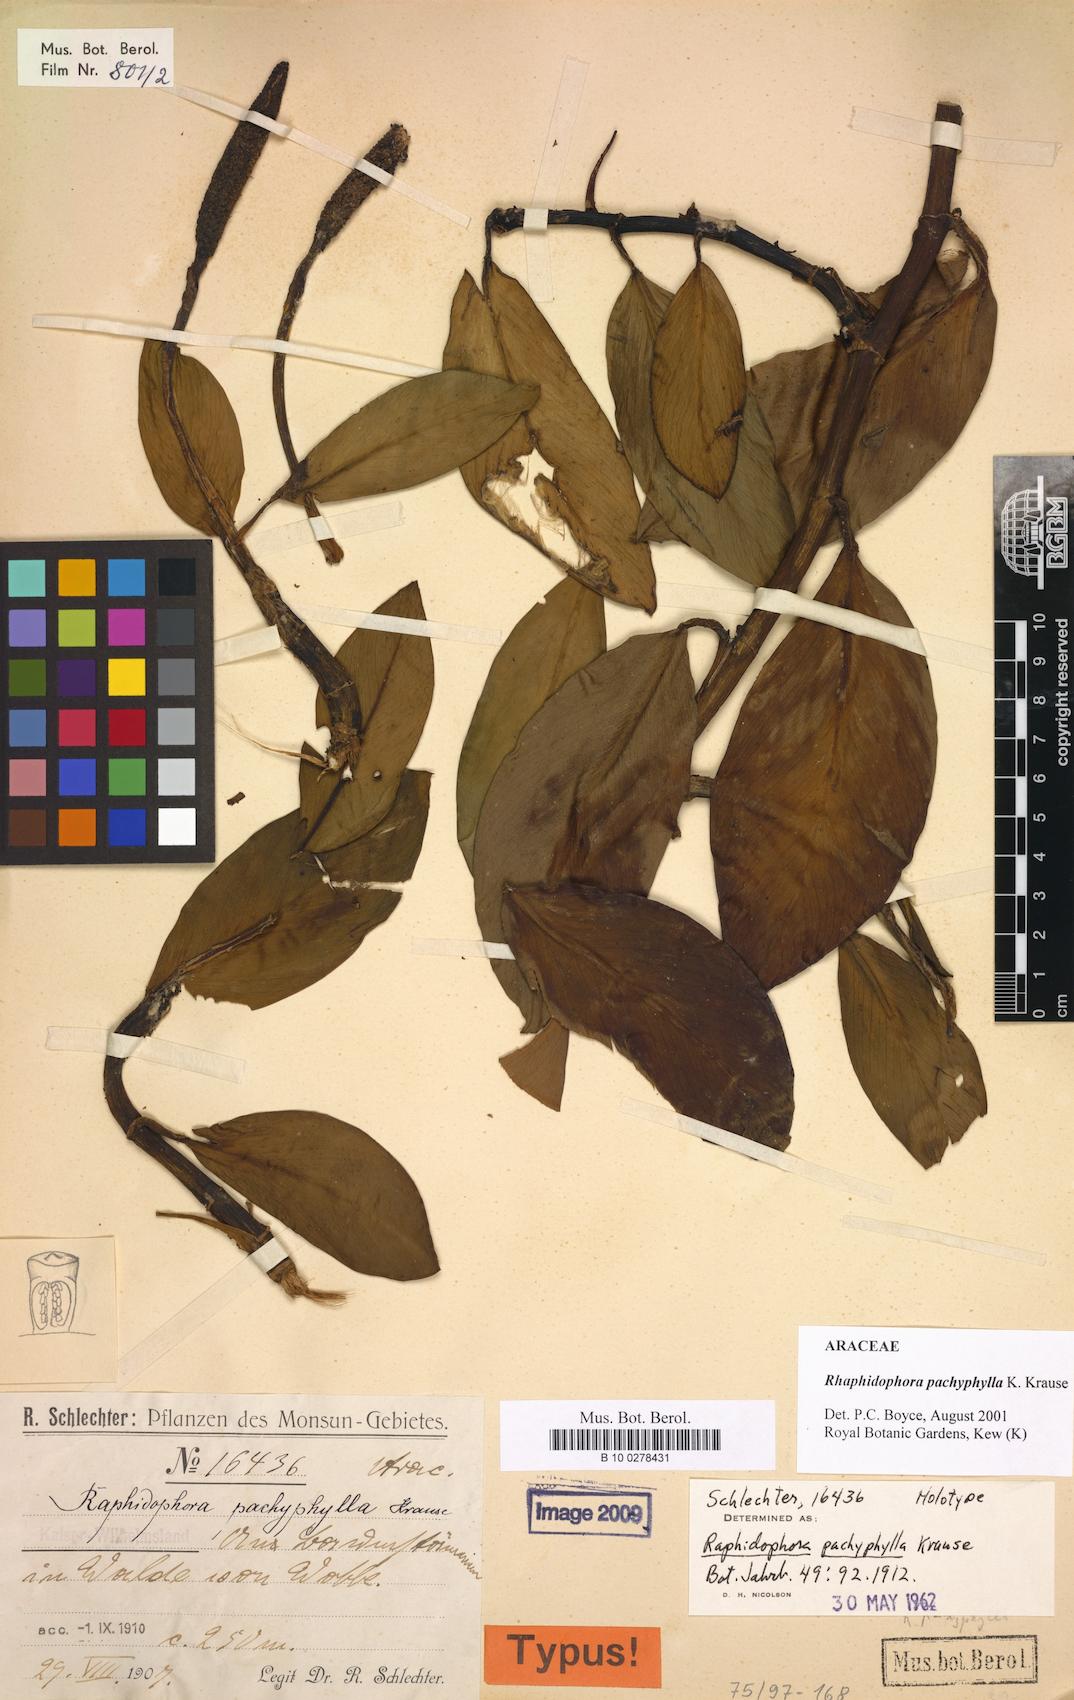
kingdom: Plantae
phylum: Tracheophyta
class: Liliopsida
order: Alismatales
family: Araceae
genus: Rhaphidophora
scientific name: Rhaphidophora pachyphylla
